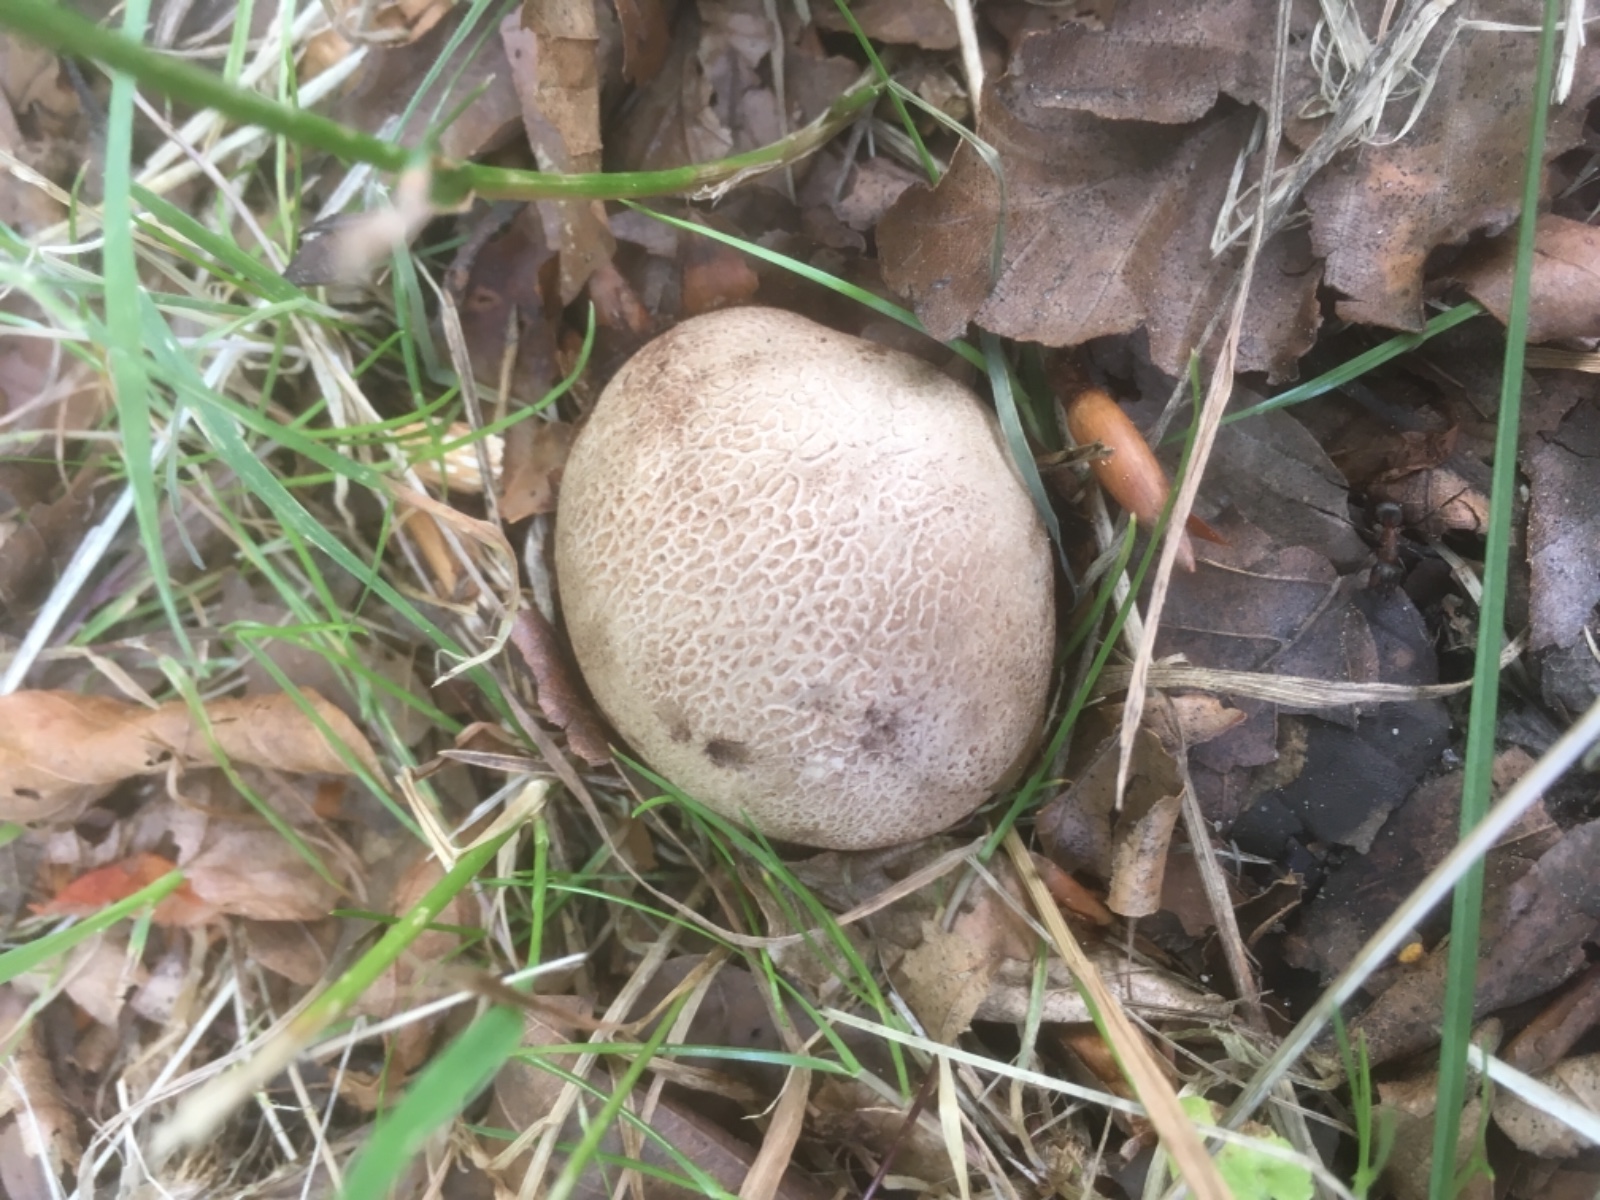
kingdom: Fungi
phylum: Basidiomycota
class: Agaricomycetes
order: Boletales
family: Sclerodermataceae
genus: Scleroderma
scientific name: Scleroderma citrinum
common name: almindelig bruskbold
